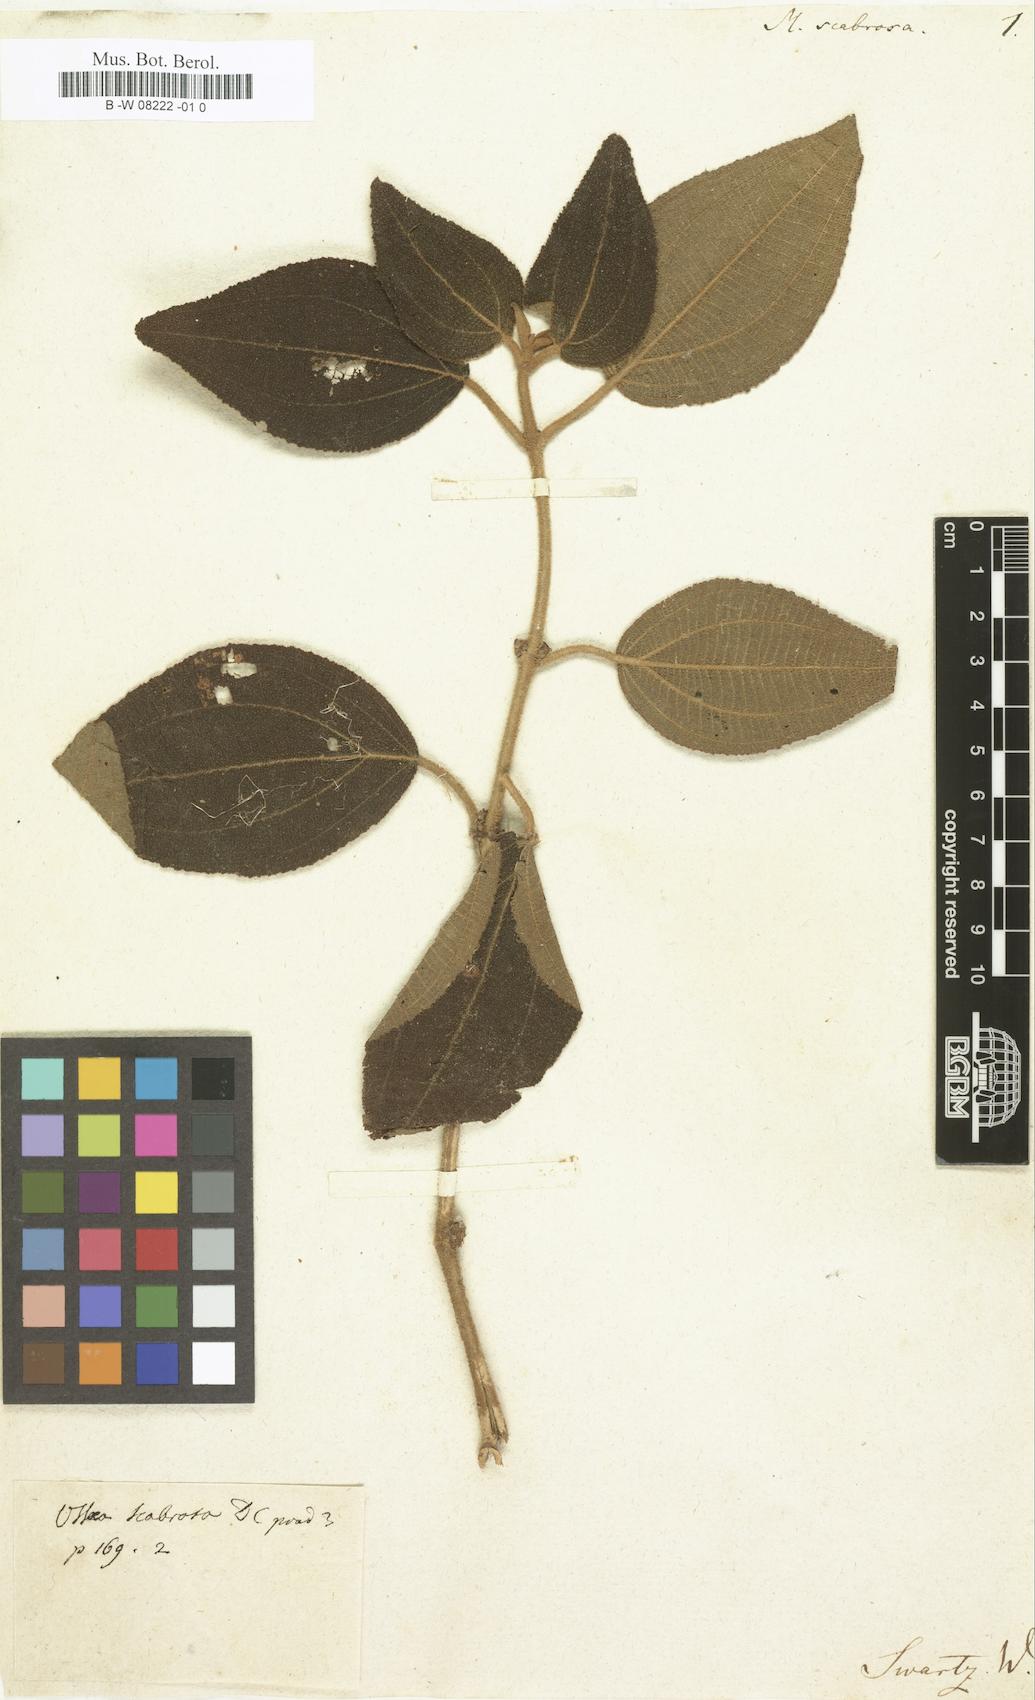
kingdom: Plantae
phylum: Tracheophyta
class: Magnoliopsida
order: Myrtales
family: Melastomataceae
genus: Melastoma
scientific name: Melastoma scabrosa
